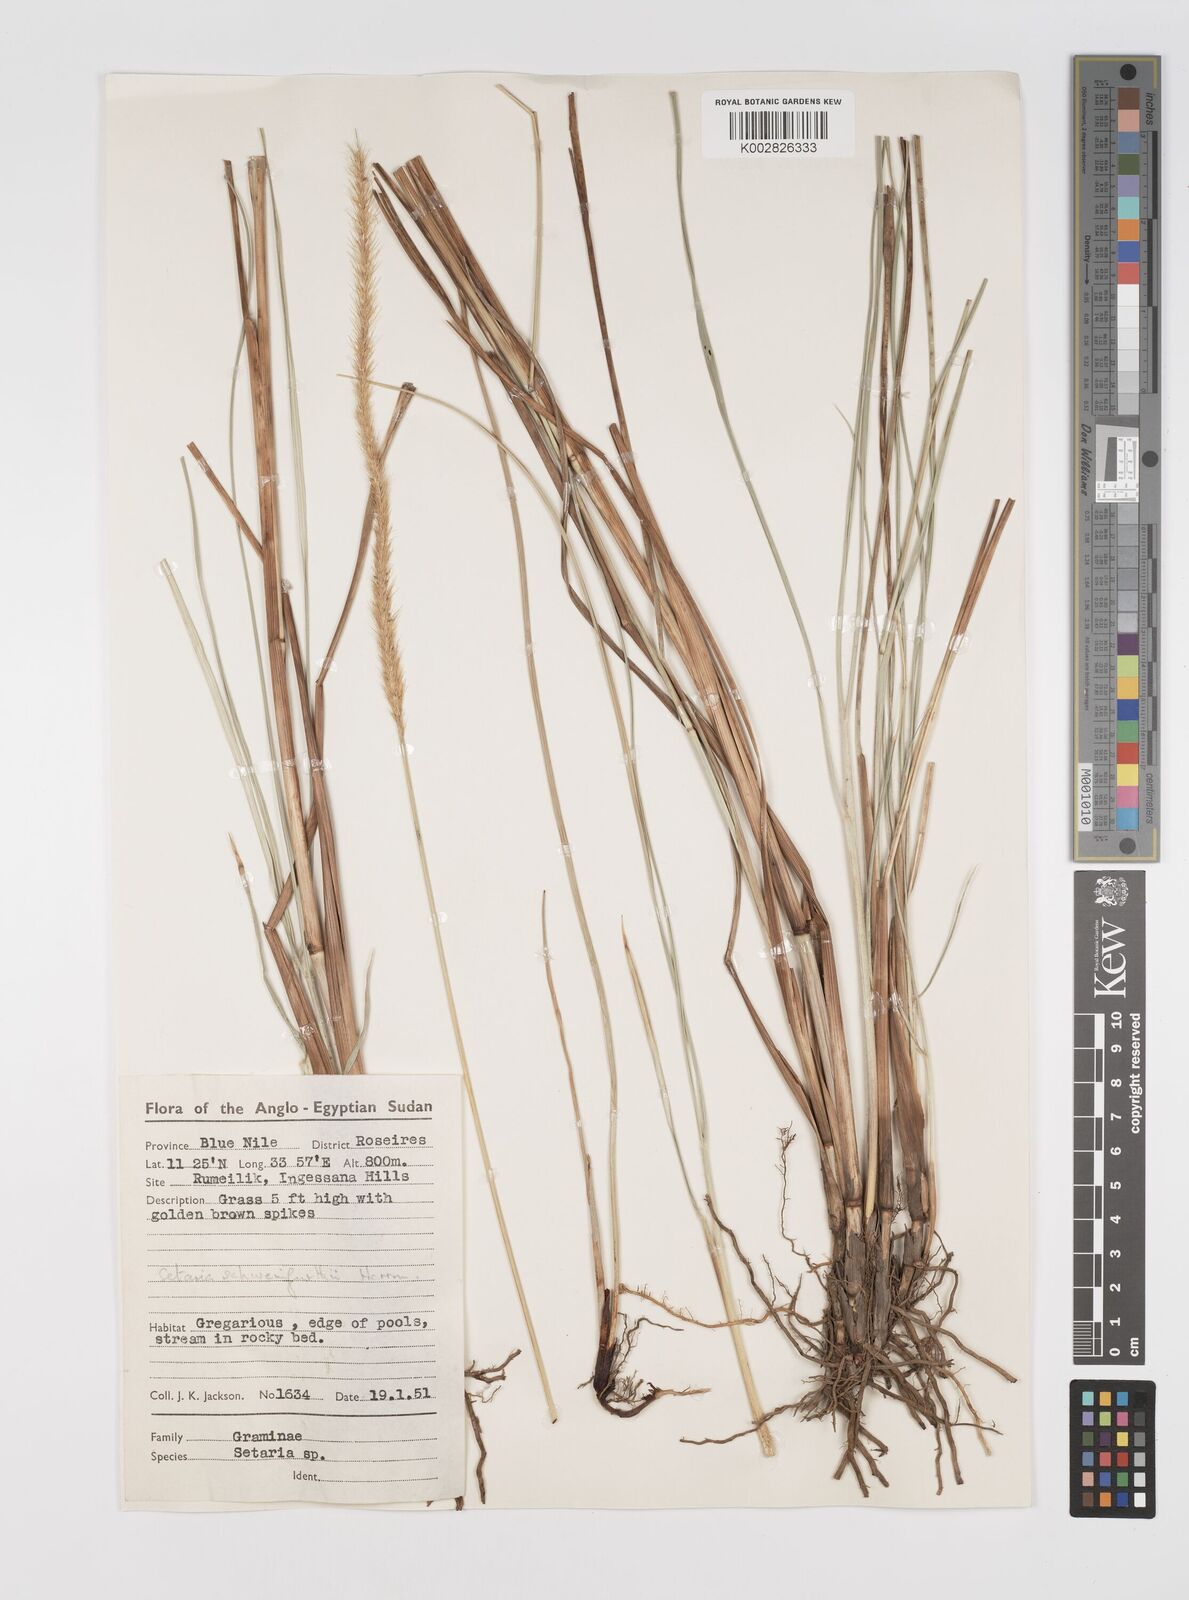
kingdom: Plantae
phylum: Tracheophyta
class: Liliopsida
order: Poales
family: Poaceae
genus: Setaria
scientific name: Setaria restioidea
